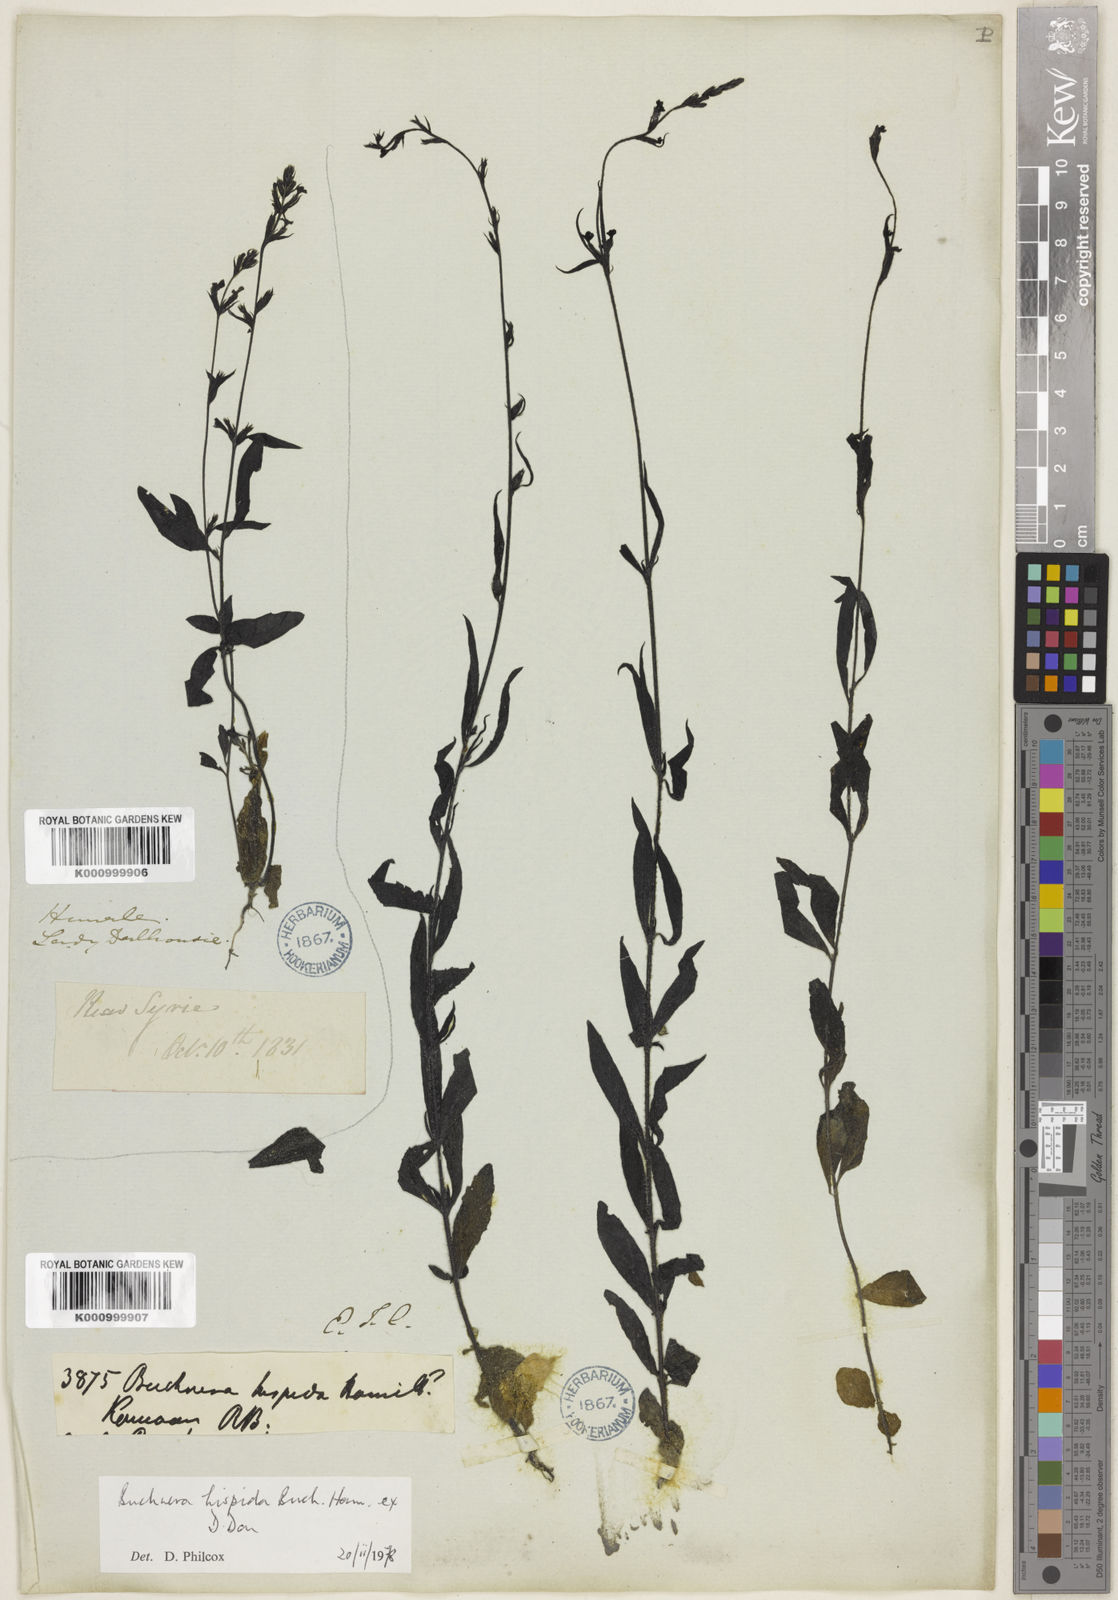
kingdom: Plantae
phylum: Tracheophyta
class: Magnoliopsida
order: Lamiales
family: Orobanchaceae
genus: Buchnera
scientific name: Buchnera hispida
